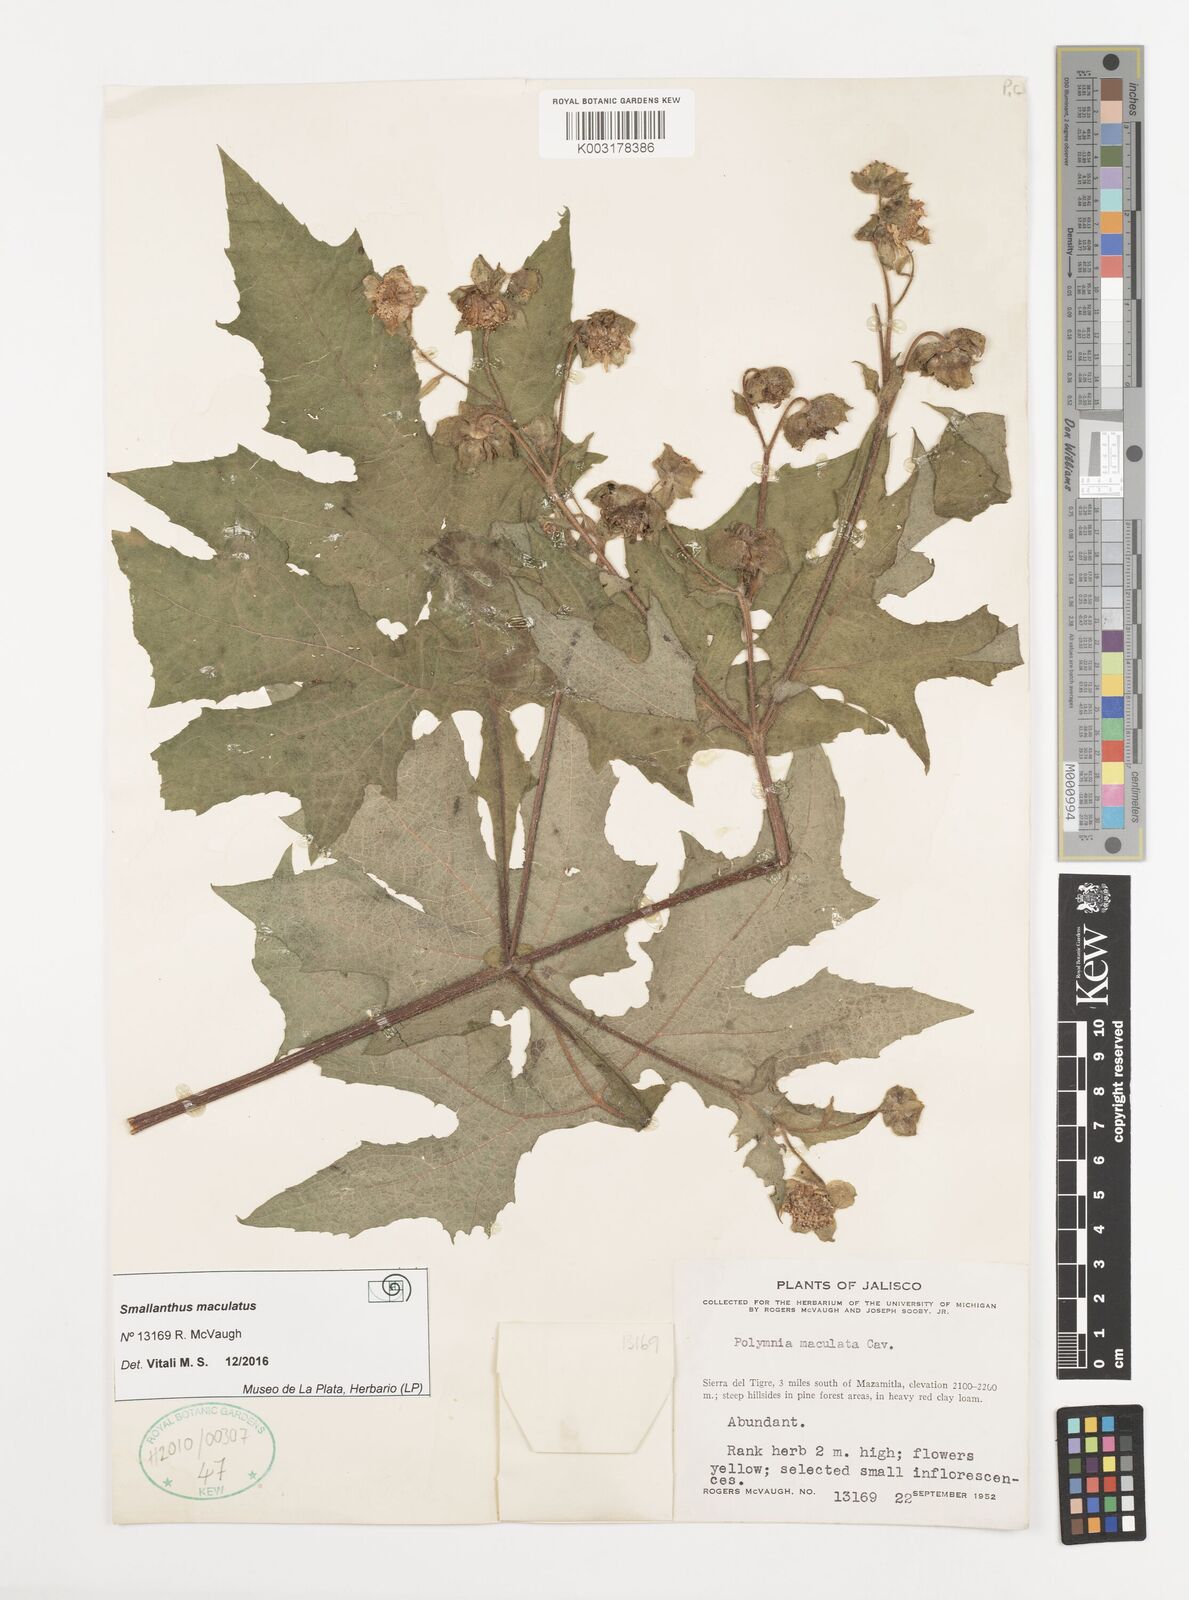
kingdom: Plantae
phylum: Tracheophyta
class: Magnoliopsida
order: Asterales
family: Asteraceae
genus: Smallanthus
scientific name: Smallanthus maculatus
